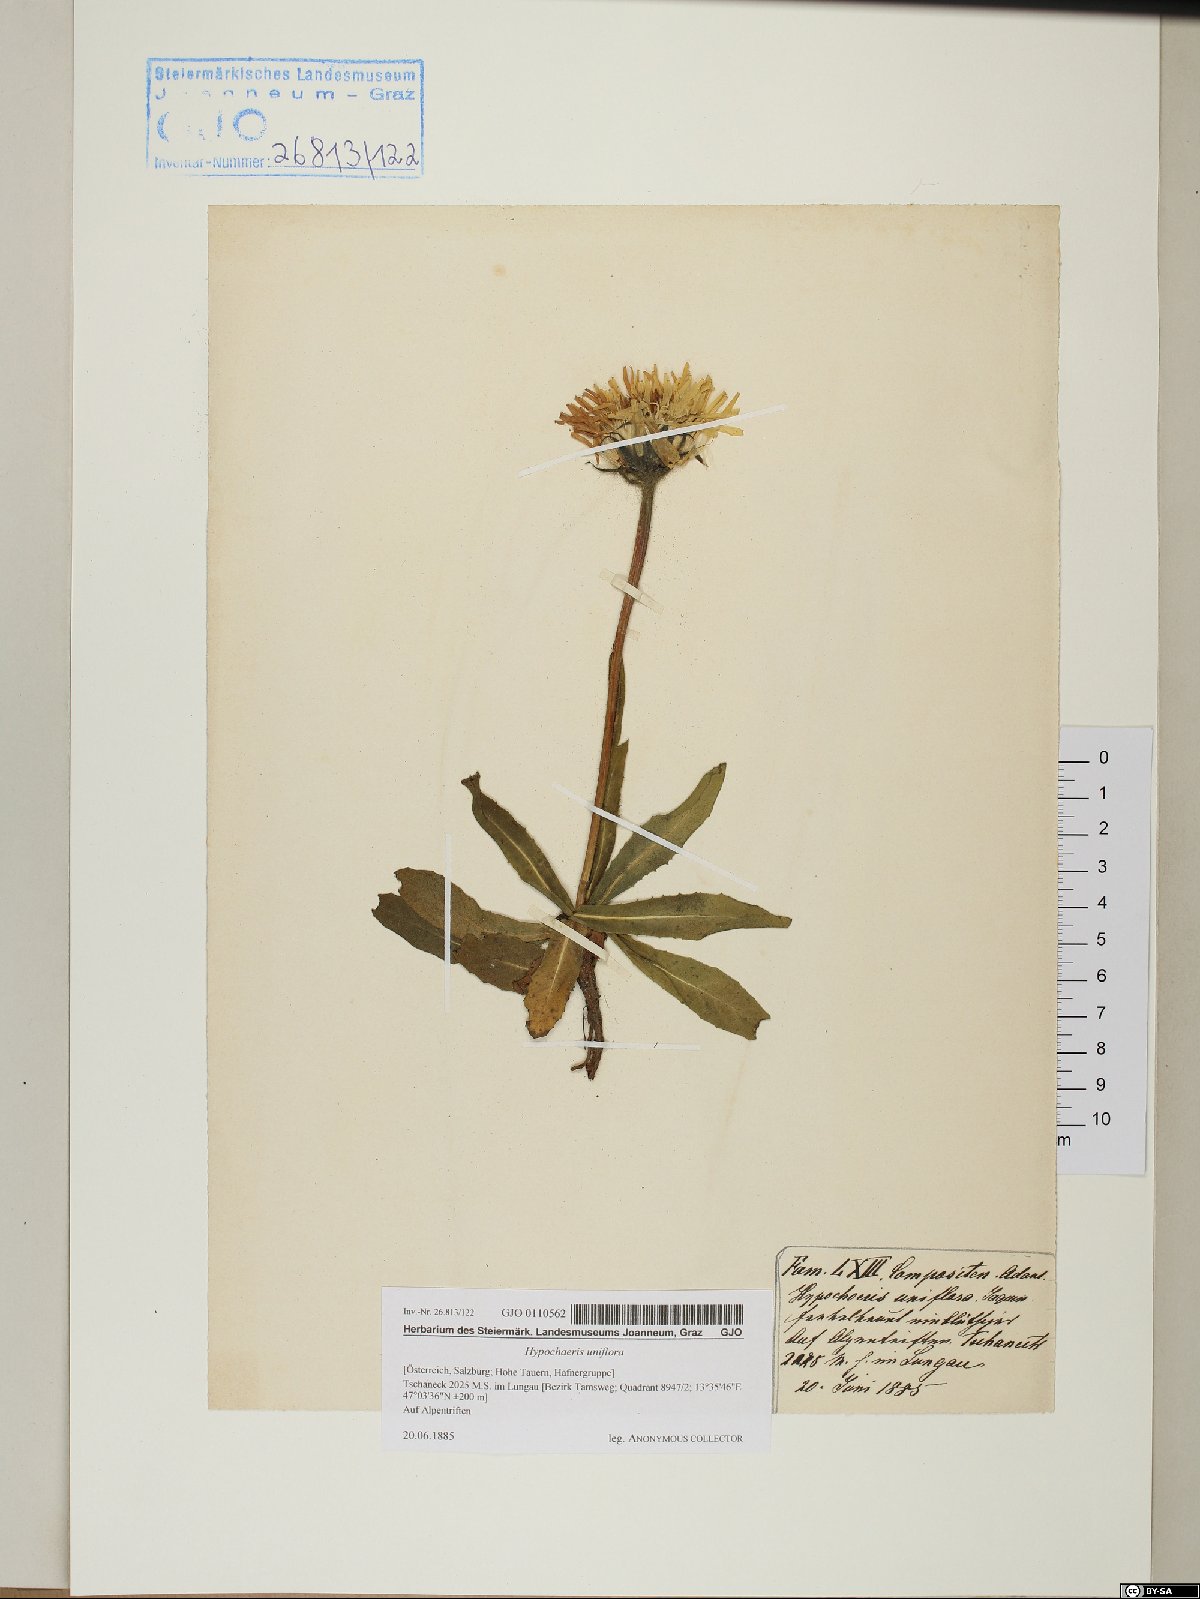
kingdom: Plantae
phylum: Tracheophyta
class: Magnoliopsida
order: Asterales
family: Asteraceae
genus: Trommsdorffia
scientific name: Trommsdorffia uniflora
